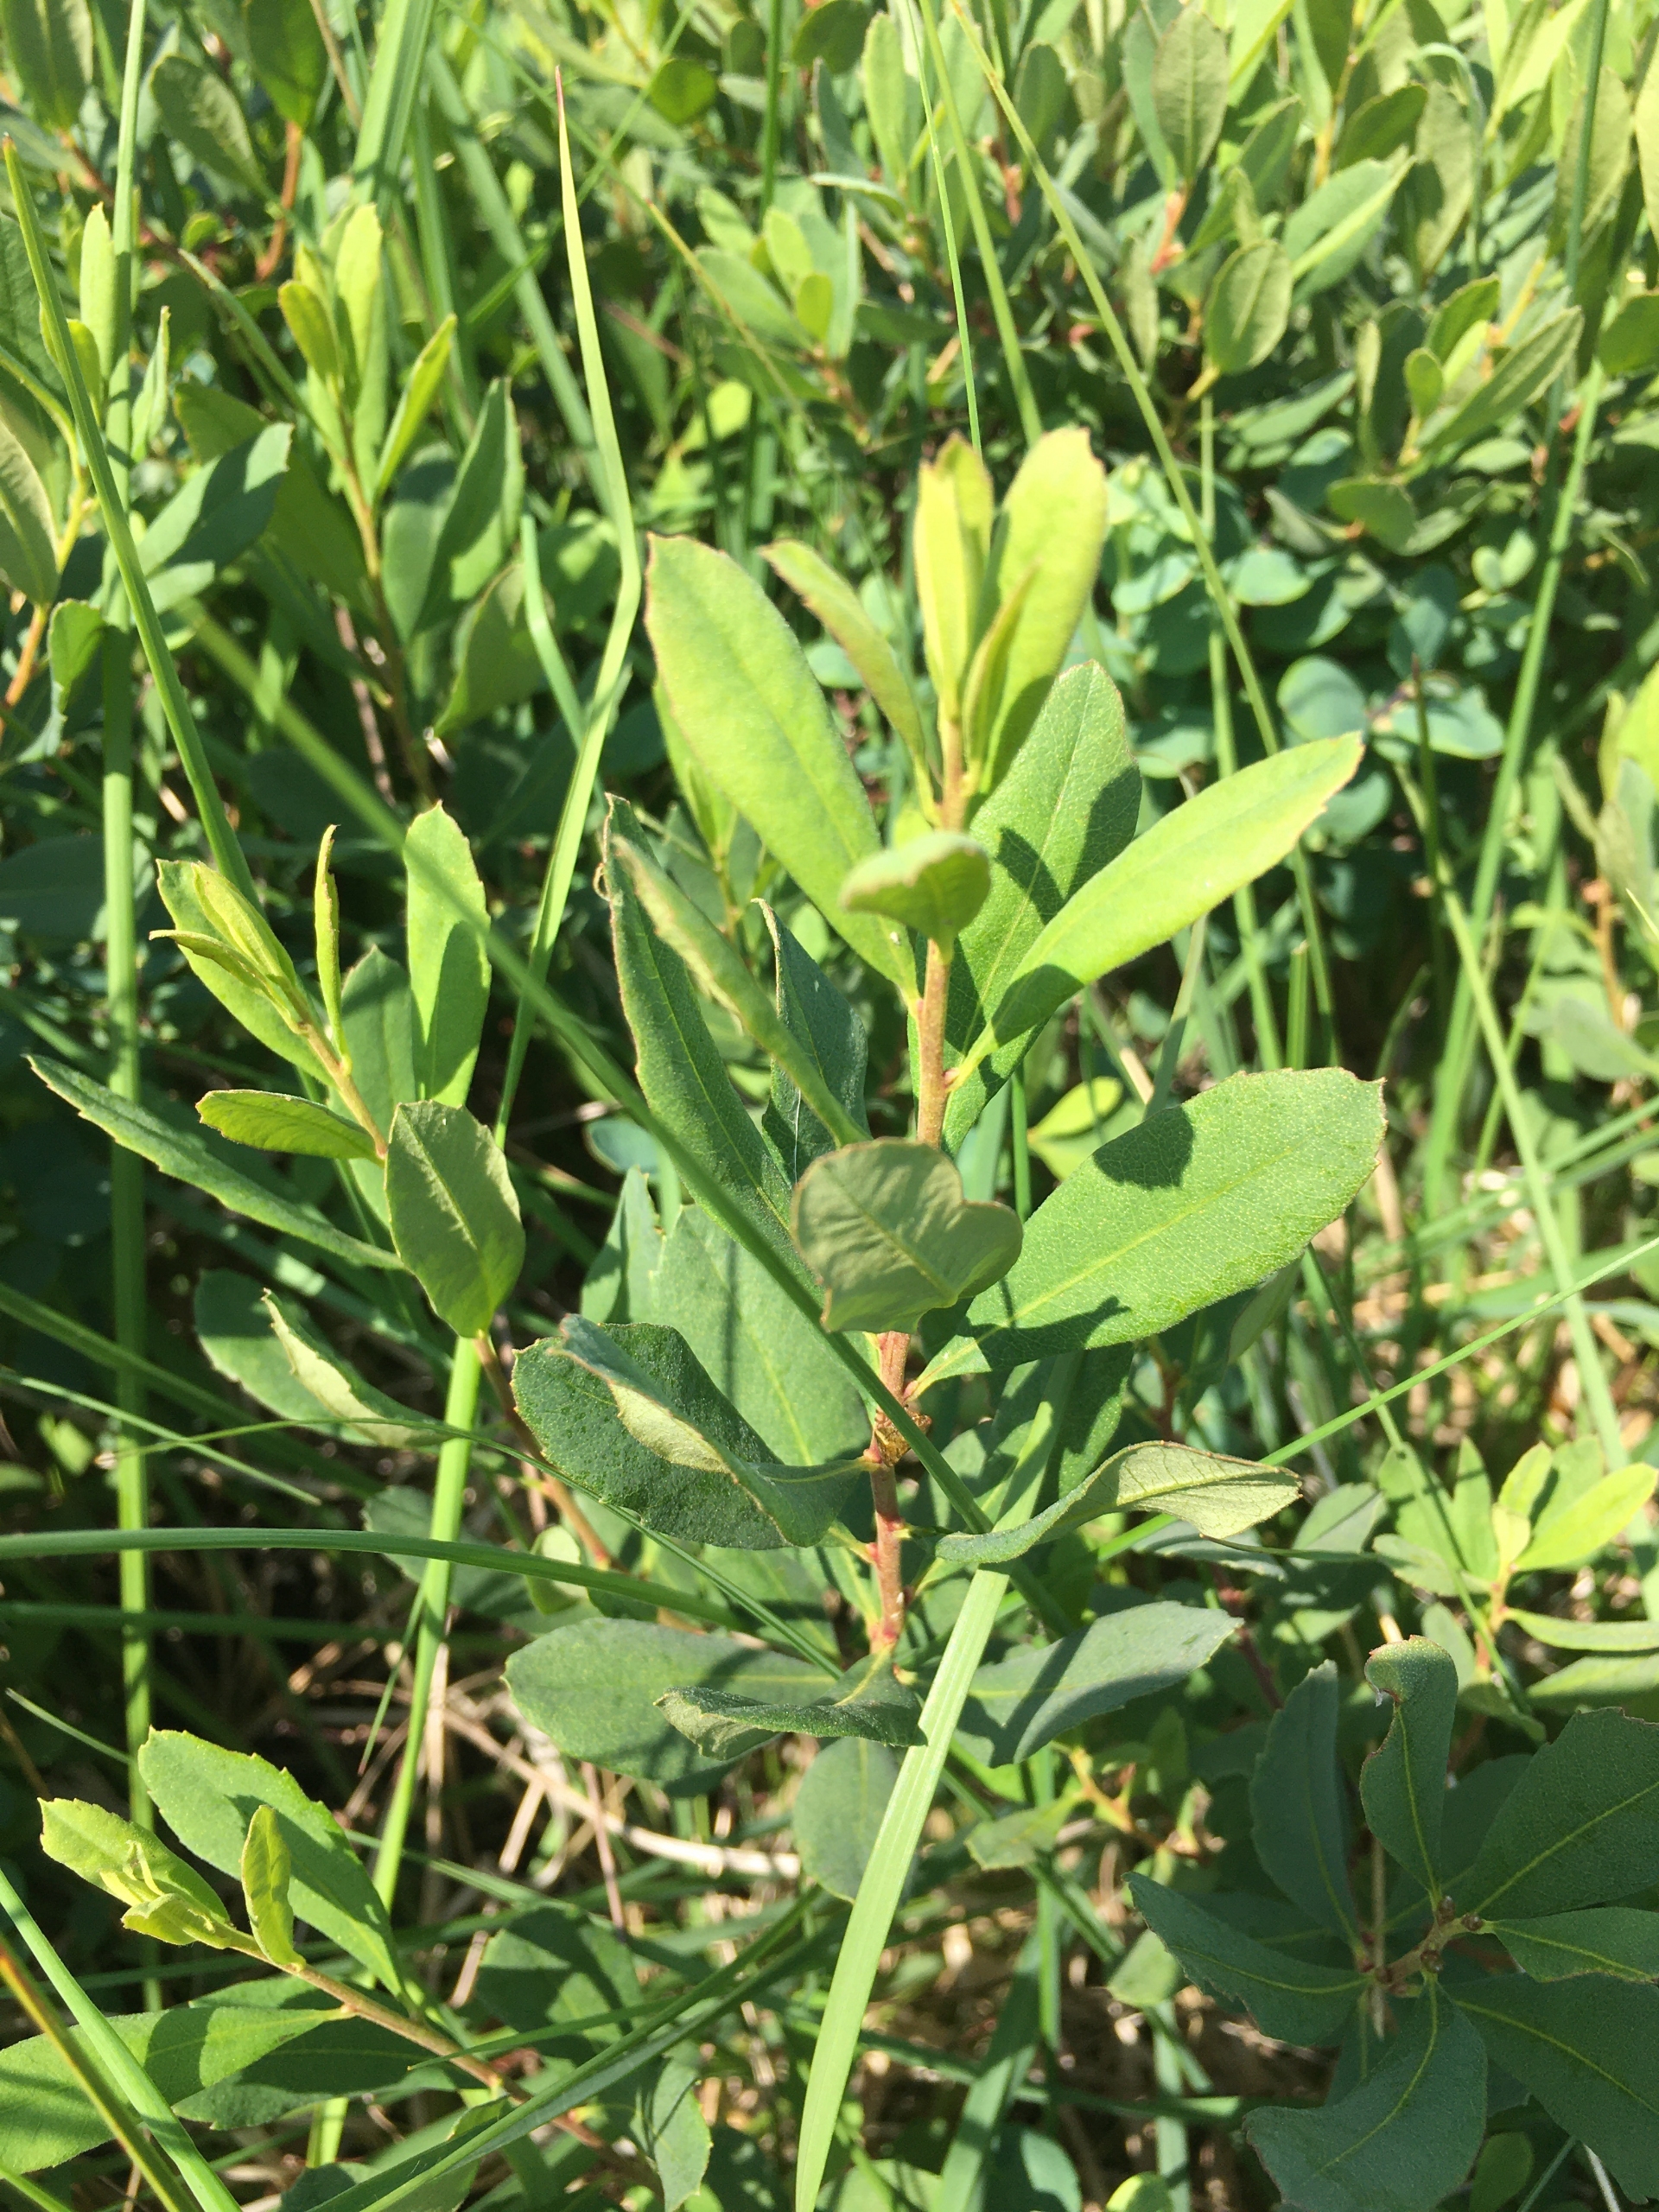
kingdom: Plantae
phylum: Tracheophyta
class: Magnoliopsida
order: Fagales
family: Myricaceae
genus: Myrica
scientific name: Myrica gale
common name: Pors
